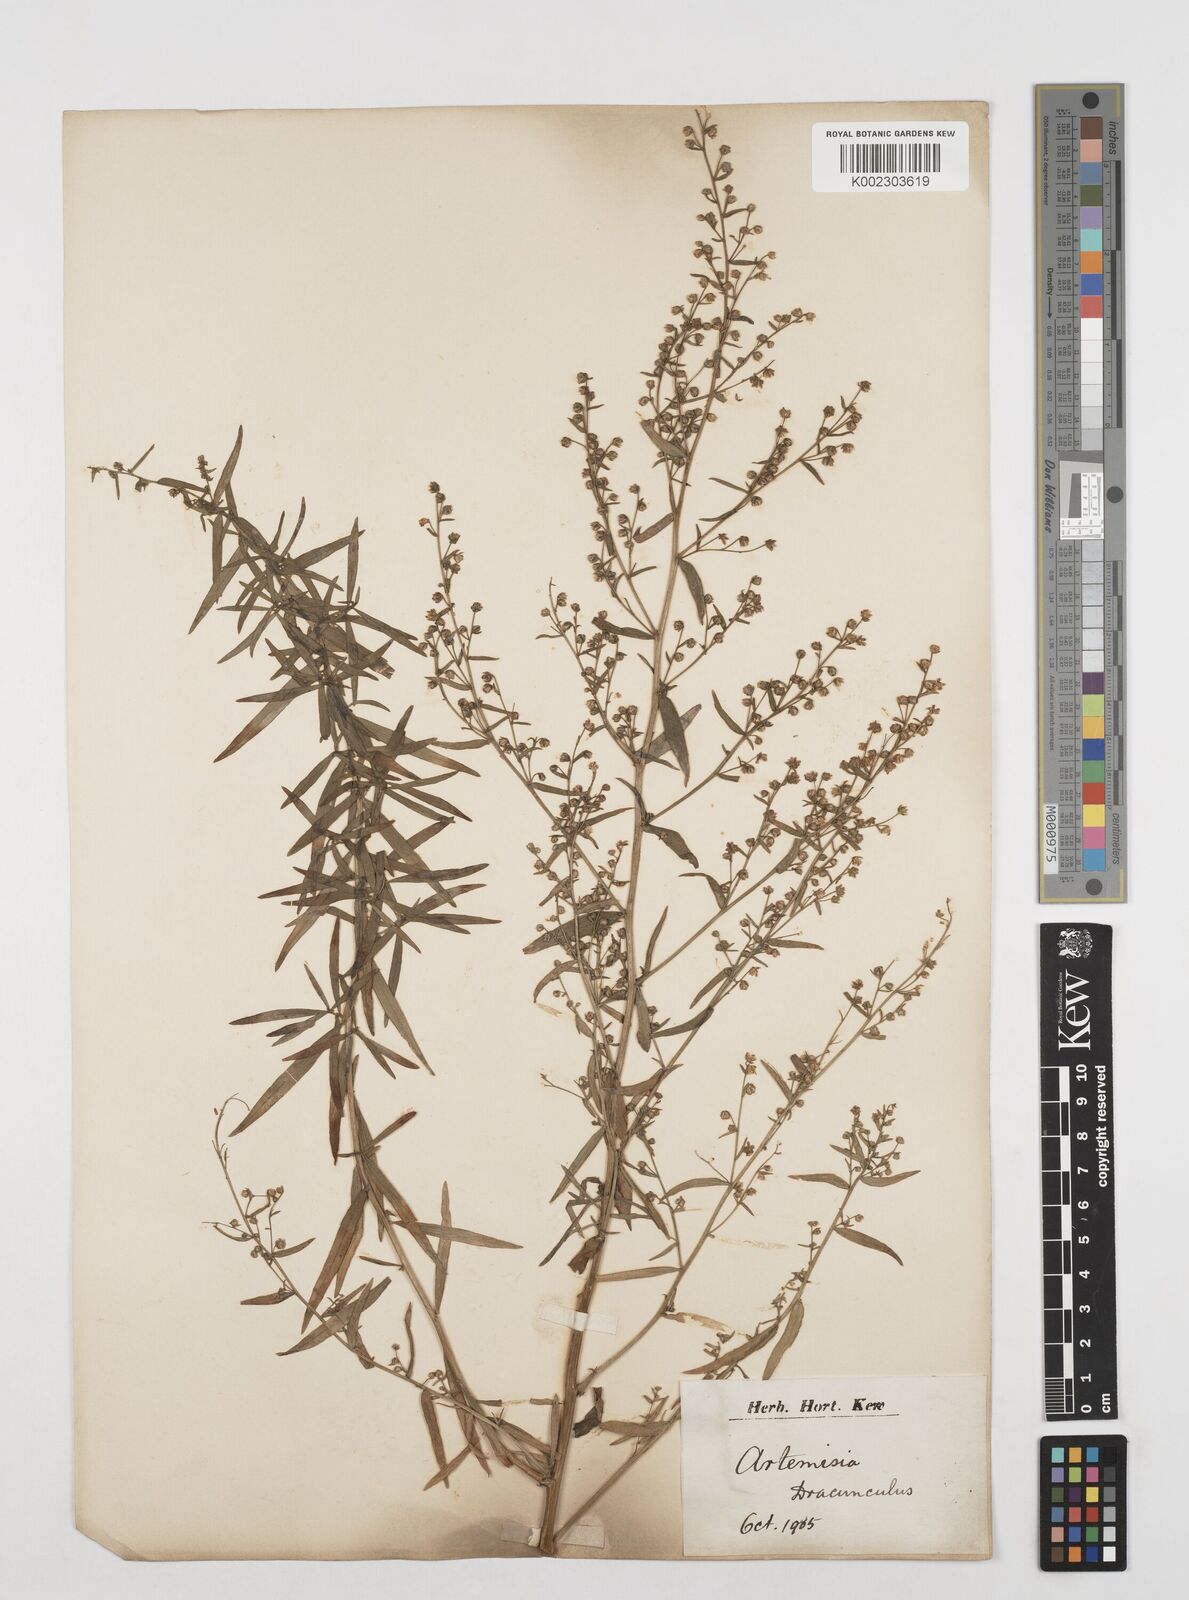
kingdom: Plantae
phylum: Tracheophyta
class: Magnoliopsida
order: Asterales
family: Asteraceae
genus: Artemisia
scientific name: Artemisia dracunculus
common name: Tarragon
